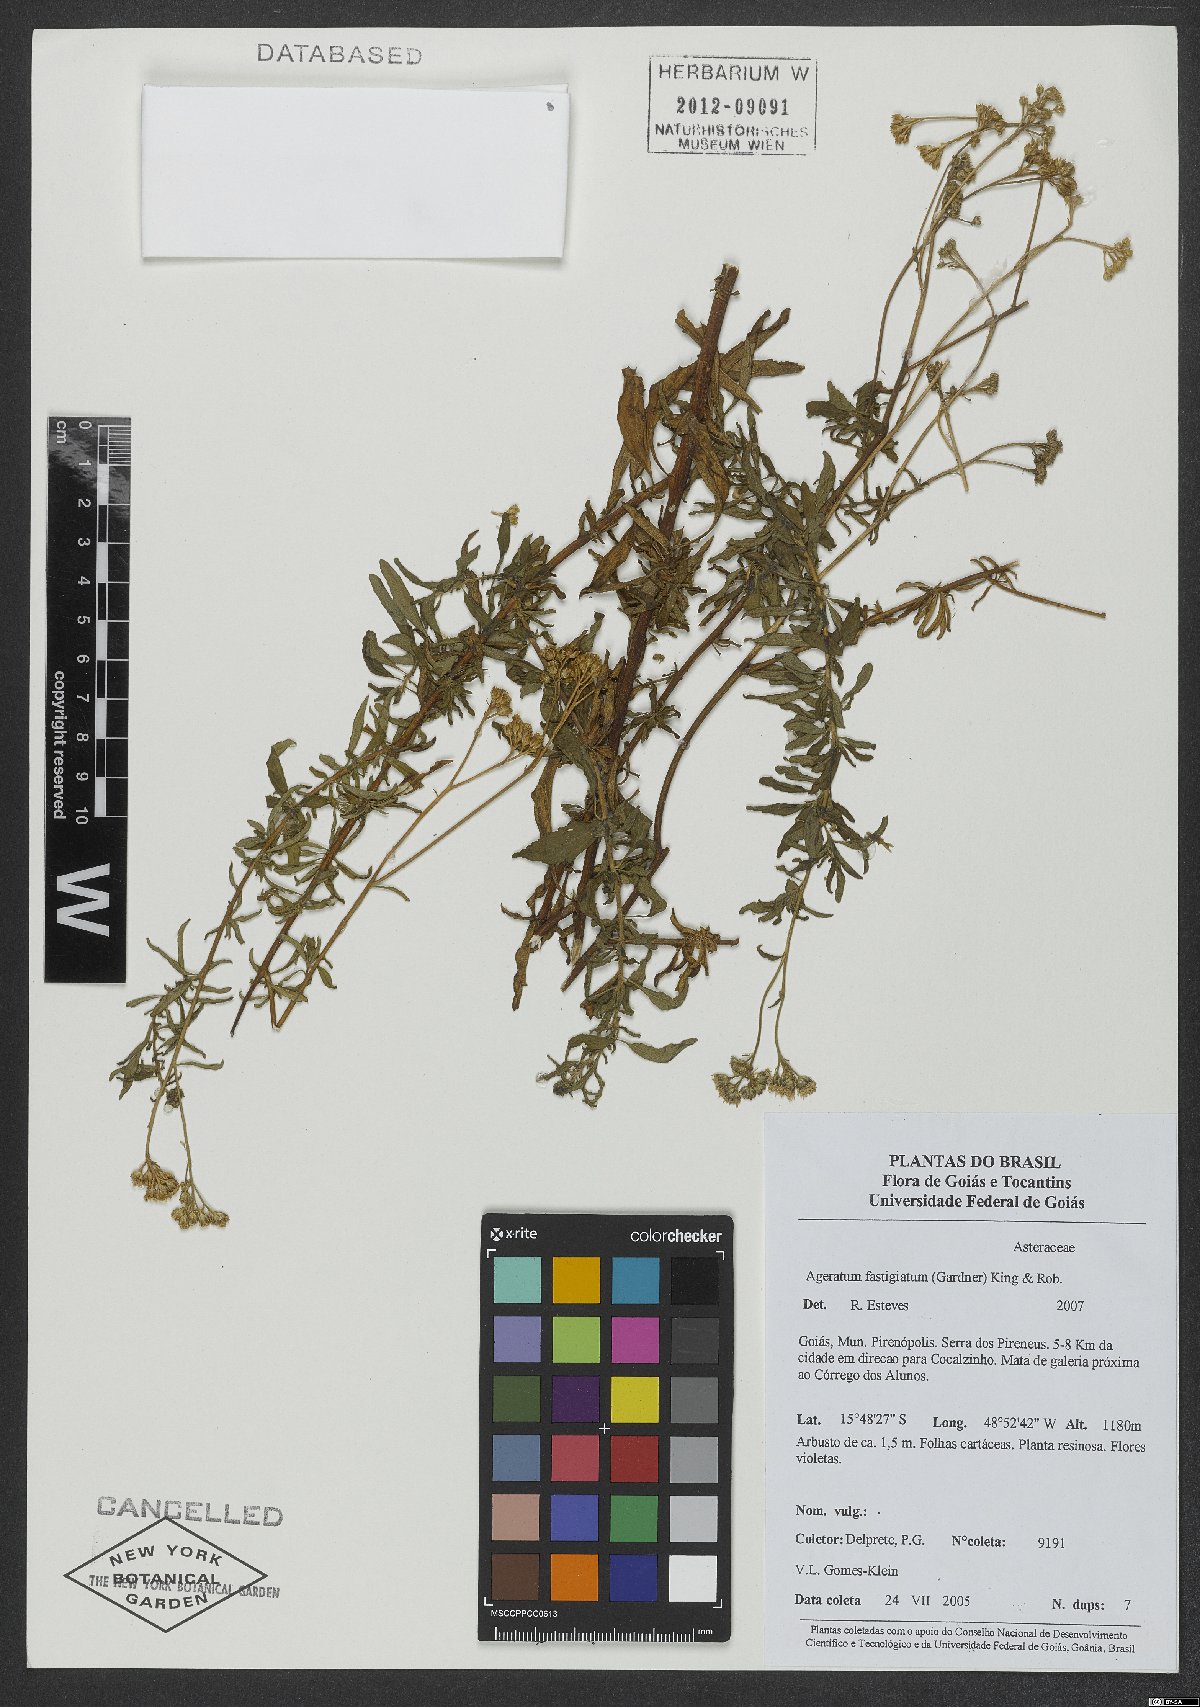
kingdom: Plantae
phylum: Tracheophyta
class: Magnoliopsida
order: Asterales
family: Asteraceae
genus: Ageratum
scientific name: Ageratum fastigiatum
